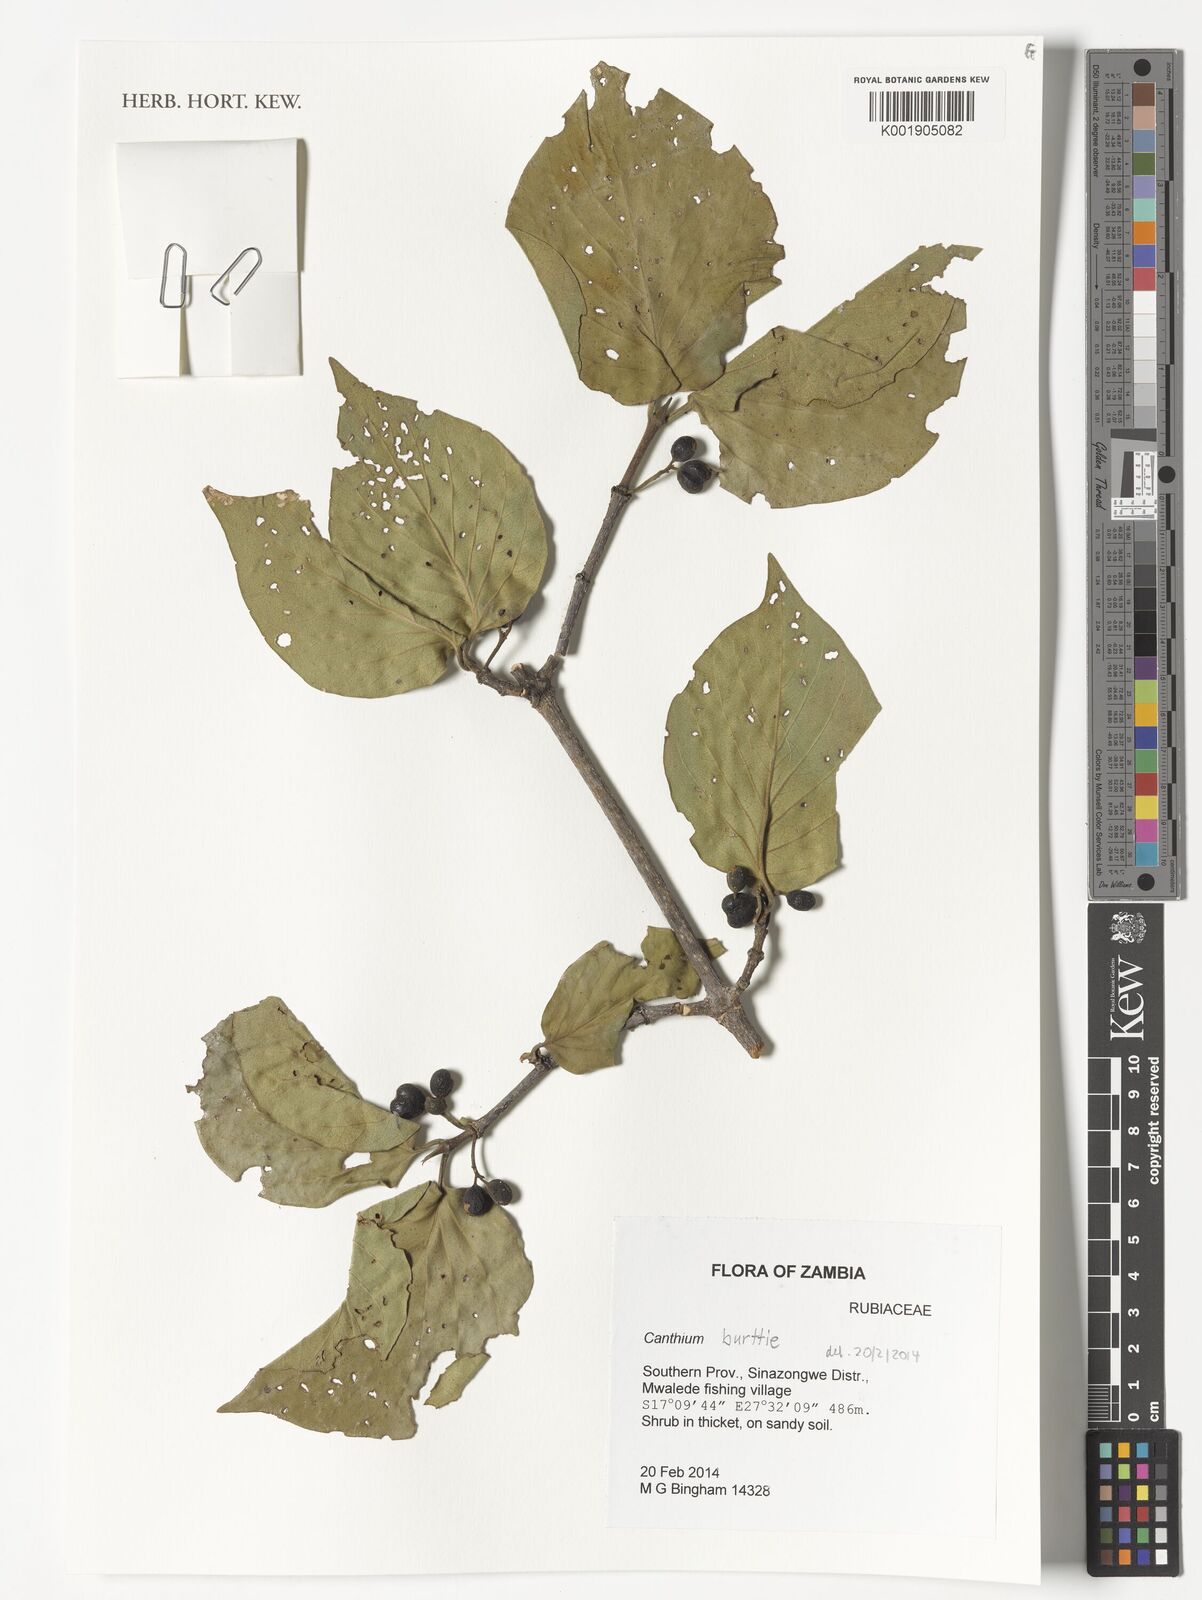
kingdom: Plantae
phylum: Tracheophyta
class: Magnoliopsida
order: Gentianales
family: Rubiaceae
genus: Afrocanthium
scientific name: Afrocanthium burttii
